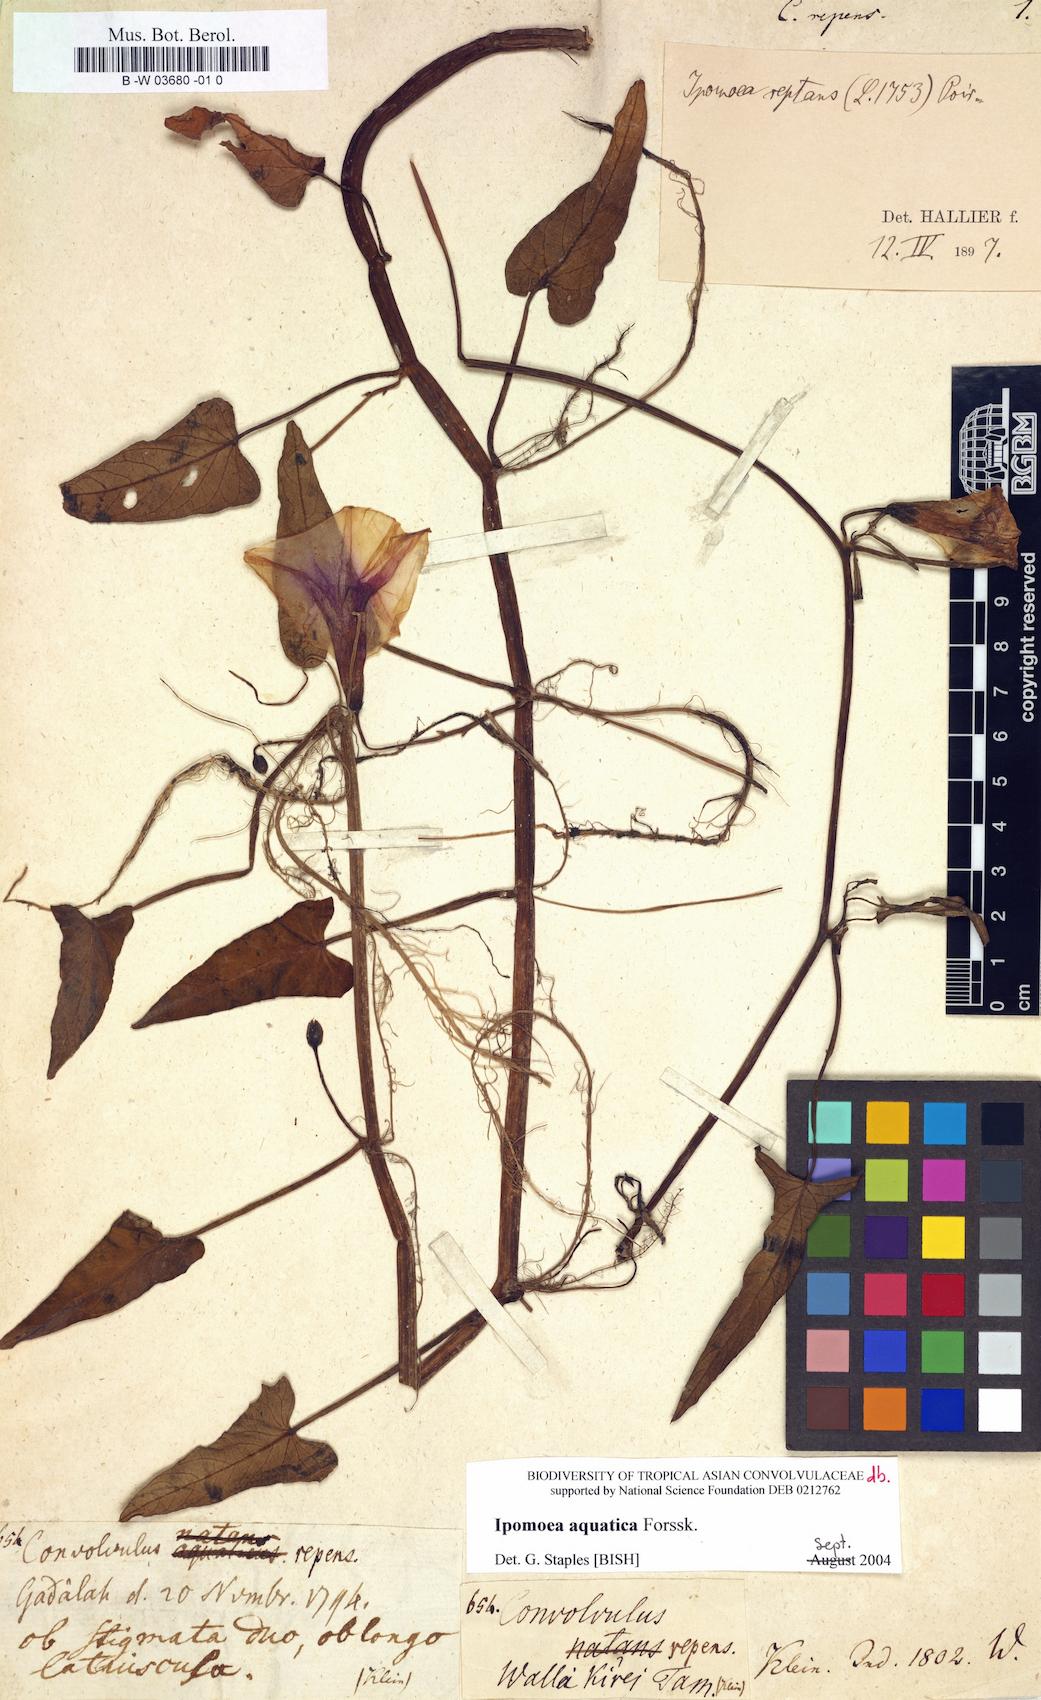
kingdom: Plantae
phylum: Tracheophyta
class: Magnoliopsida
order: Solanales
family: Convolvulaceae
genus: Convolvulus
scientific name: Convolvulus repens
